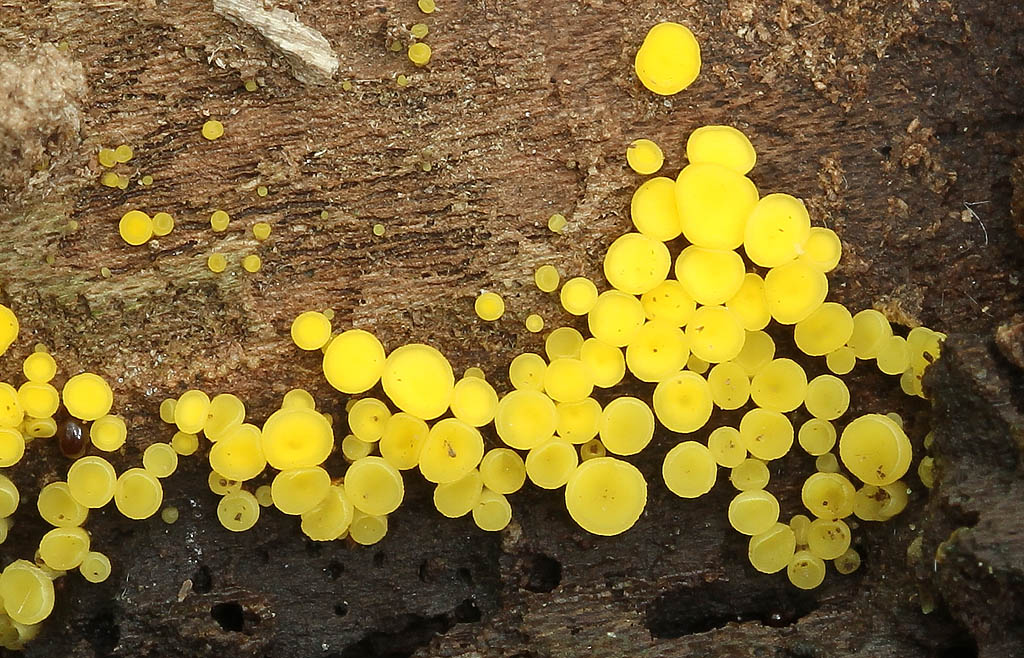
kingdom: Fungi
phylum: Ascomycota
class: Leotiomycetes
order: Helotiales
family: Pezizellaceae
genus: Calycina
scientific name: Calycina citrina
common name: almindelig gulskive
